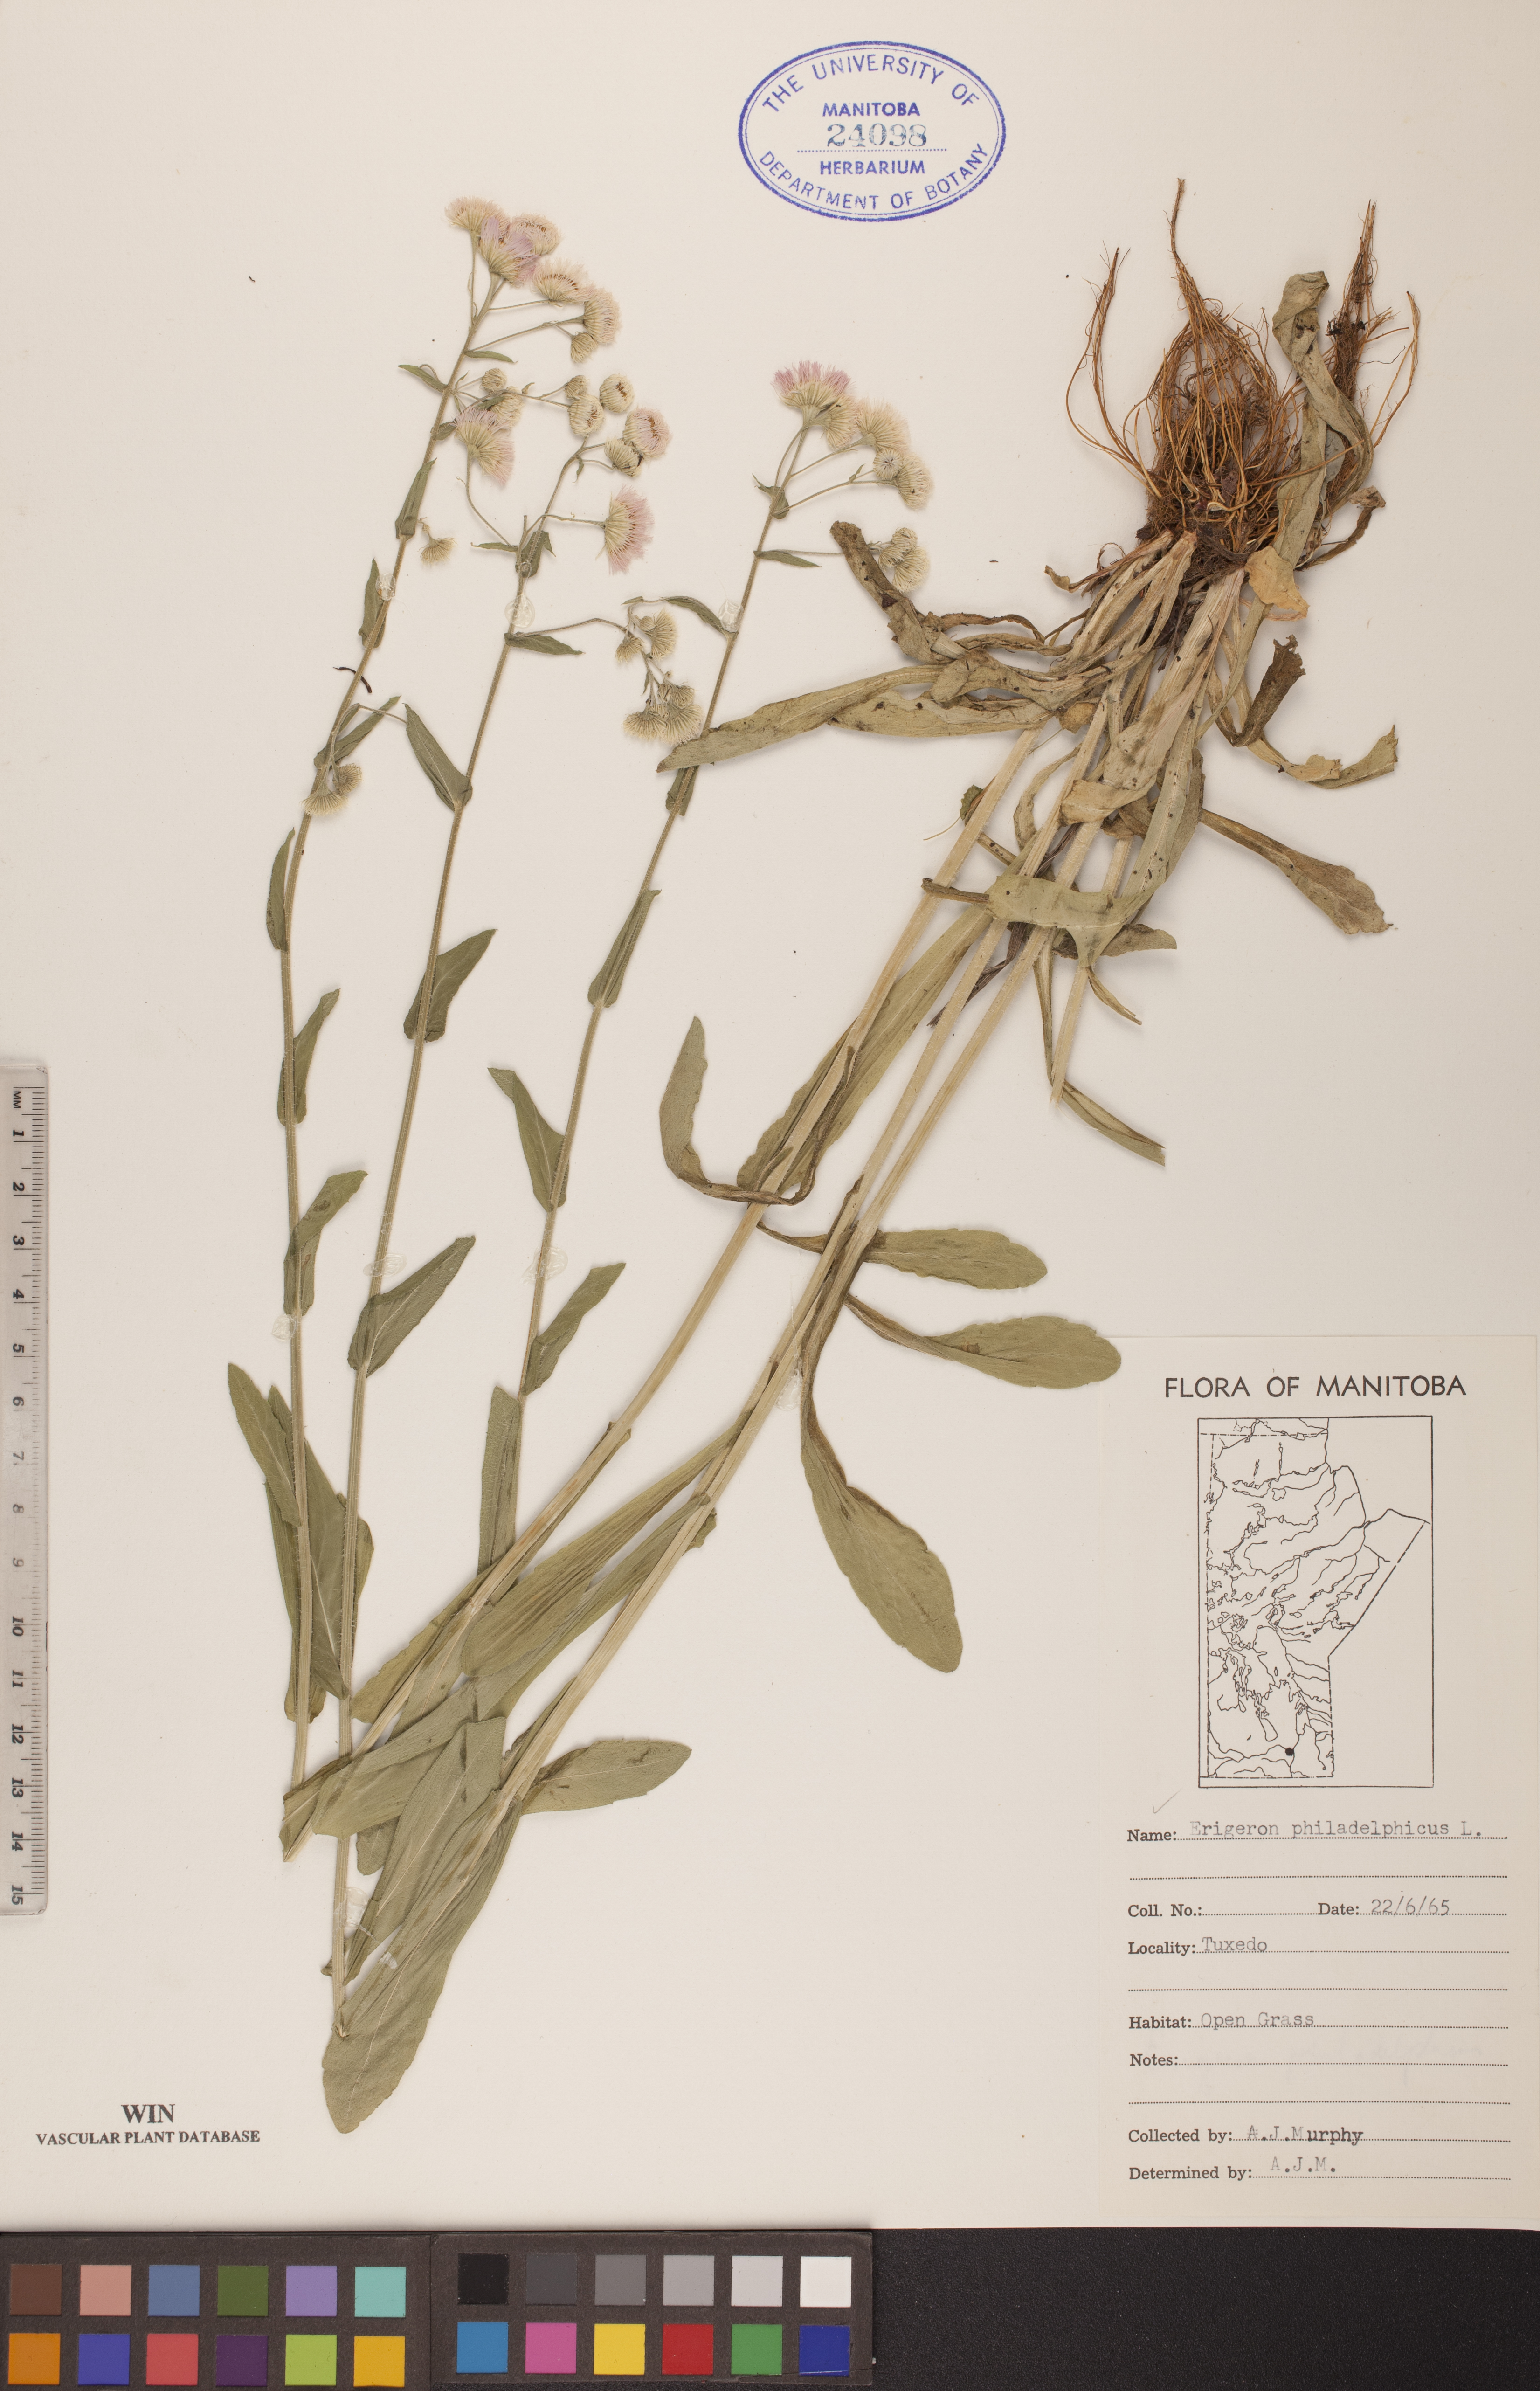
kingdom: Plantae
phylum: Tracheophyta
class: Magnoliopsida
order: Asterales
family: Asteraceae
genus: Erigeron
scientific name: Erigeron philadelphicus
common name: Robin's-plantain
